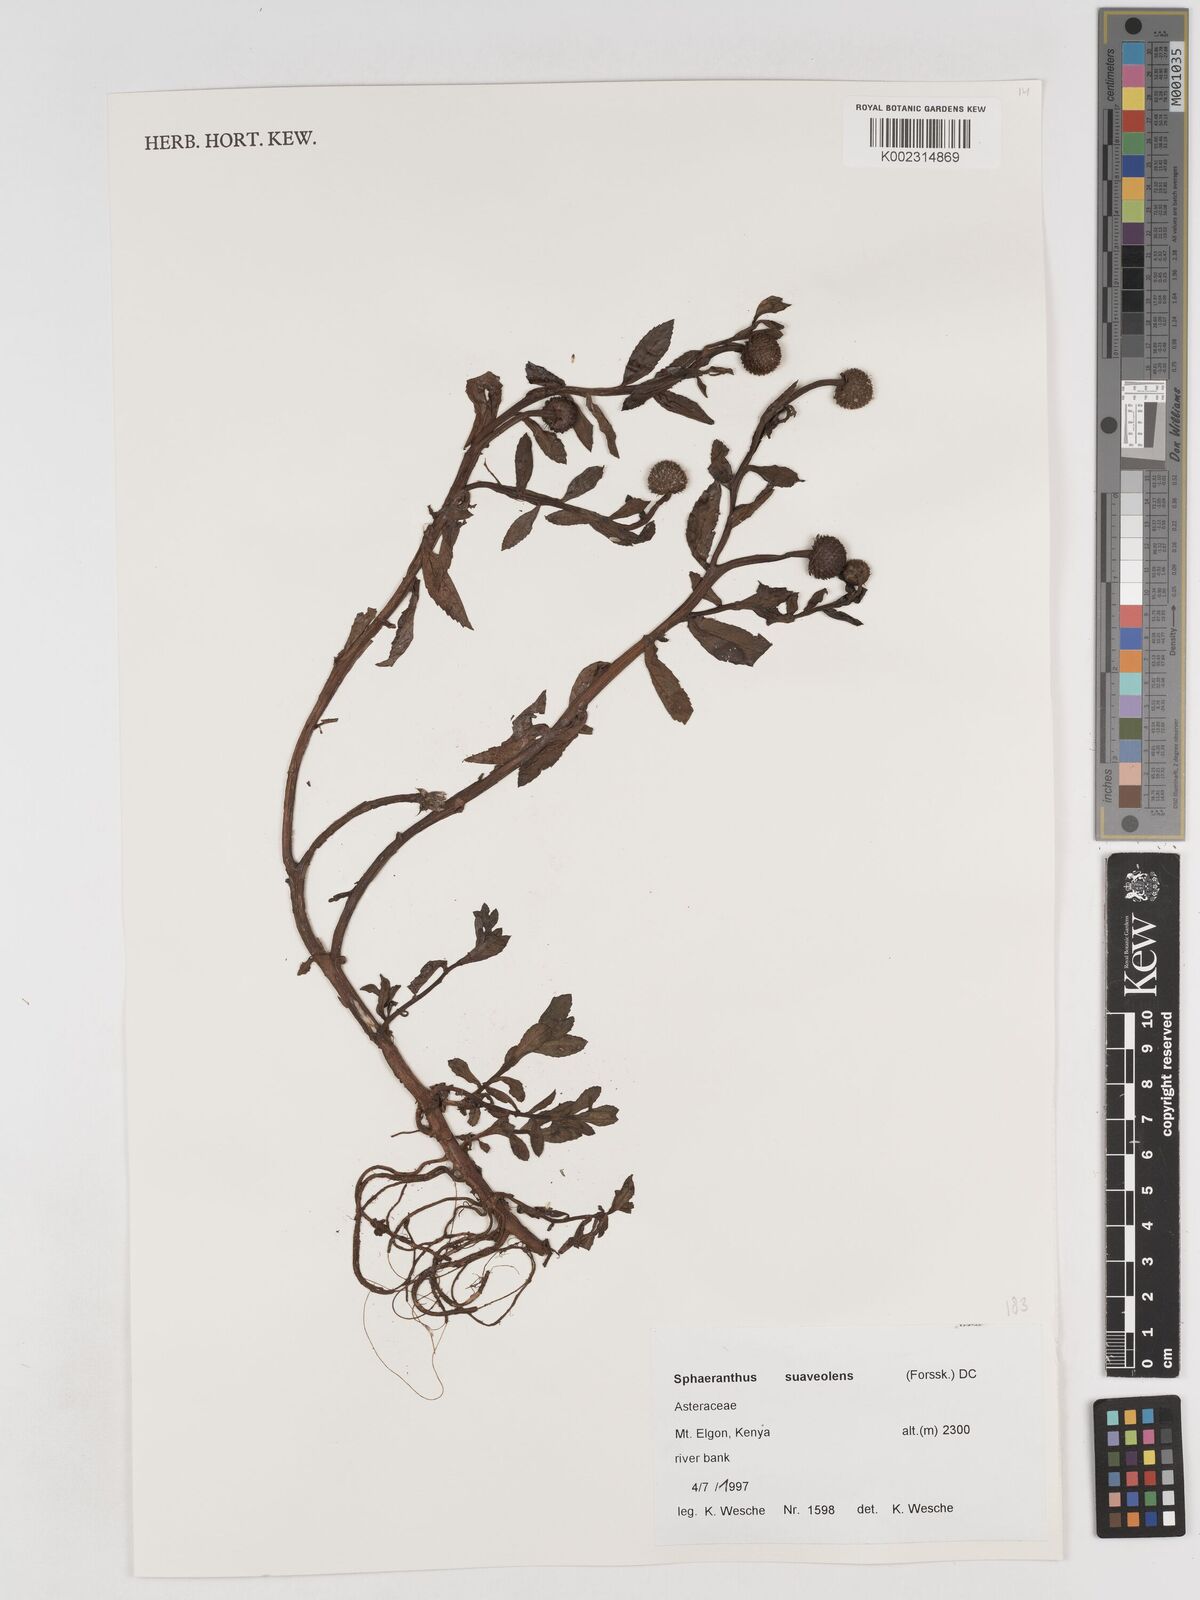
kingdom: Plantae
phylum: Tracheophyta
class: Magnoliopsida
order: Asterales
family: Asteraceae
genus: Sphaeranthus
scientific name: Sphaeranthus suaveolens
